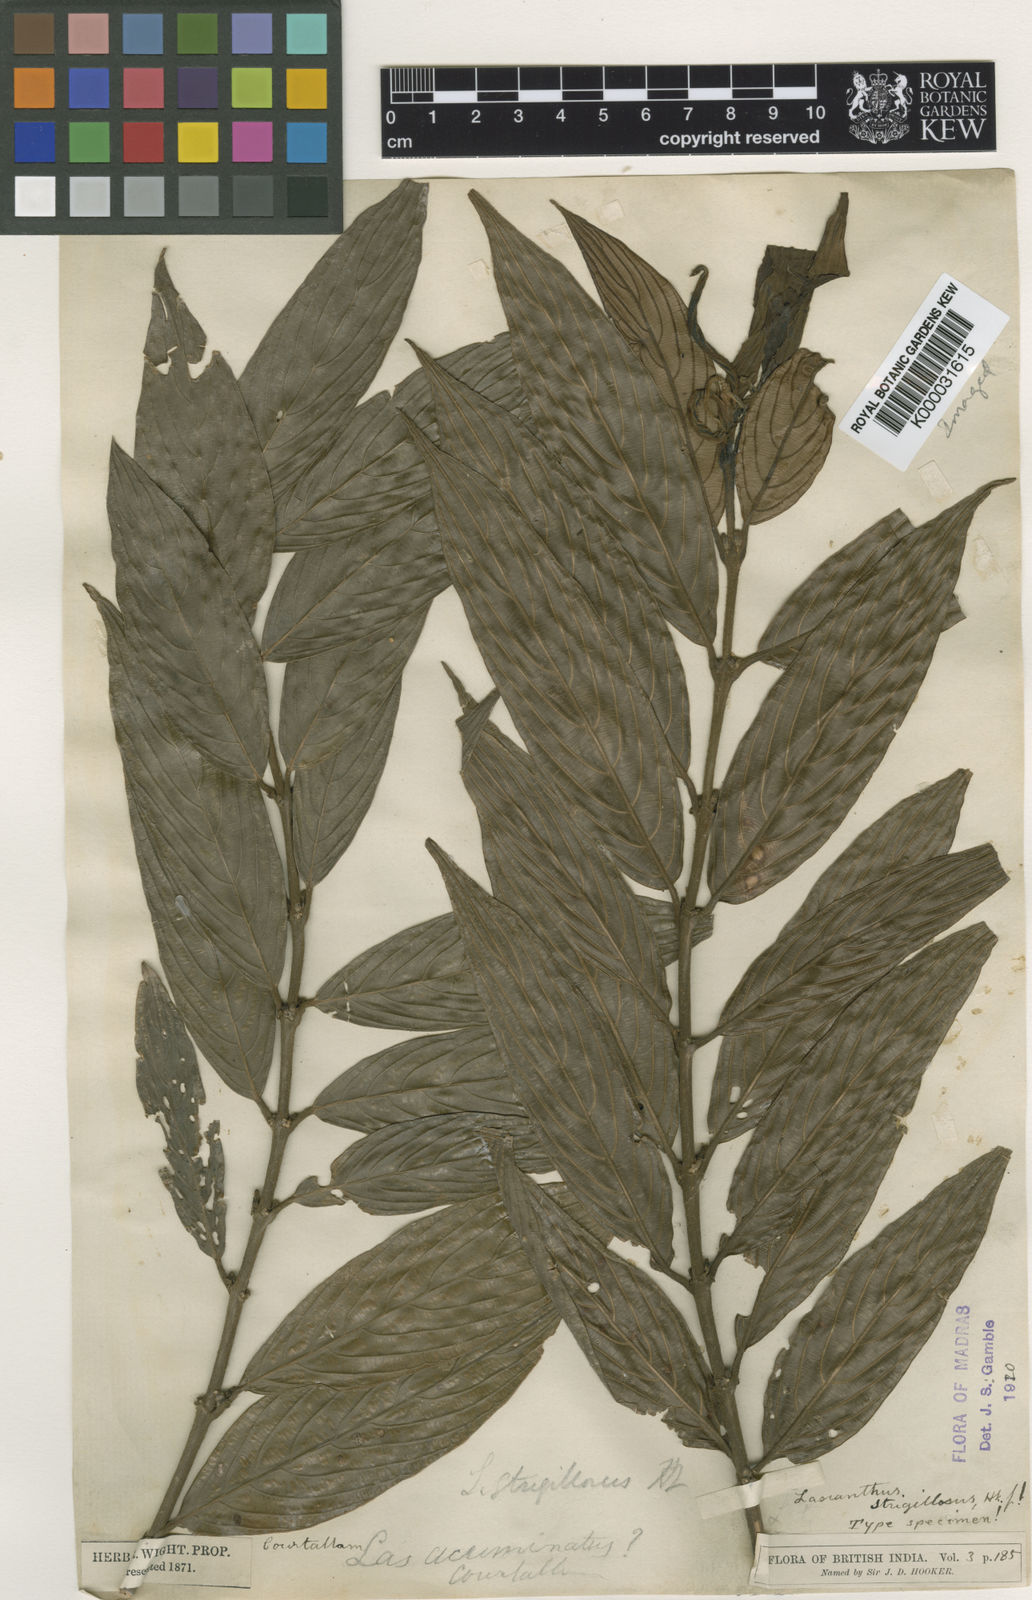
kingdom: Plantae
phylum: Tracheophyta
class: Magnoliopsida
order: Gentianales
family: Rubiaceae
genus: Lasianthus
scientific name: Lasianthus strigillosus
